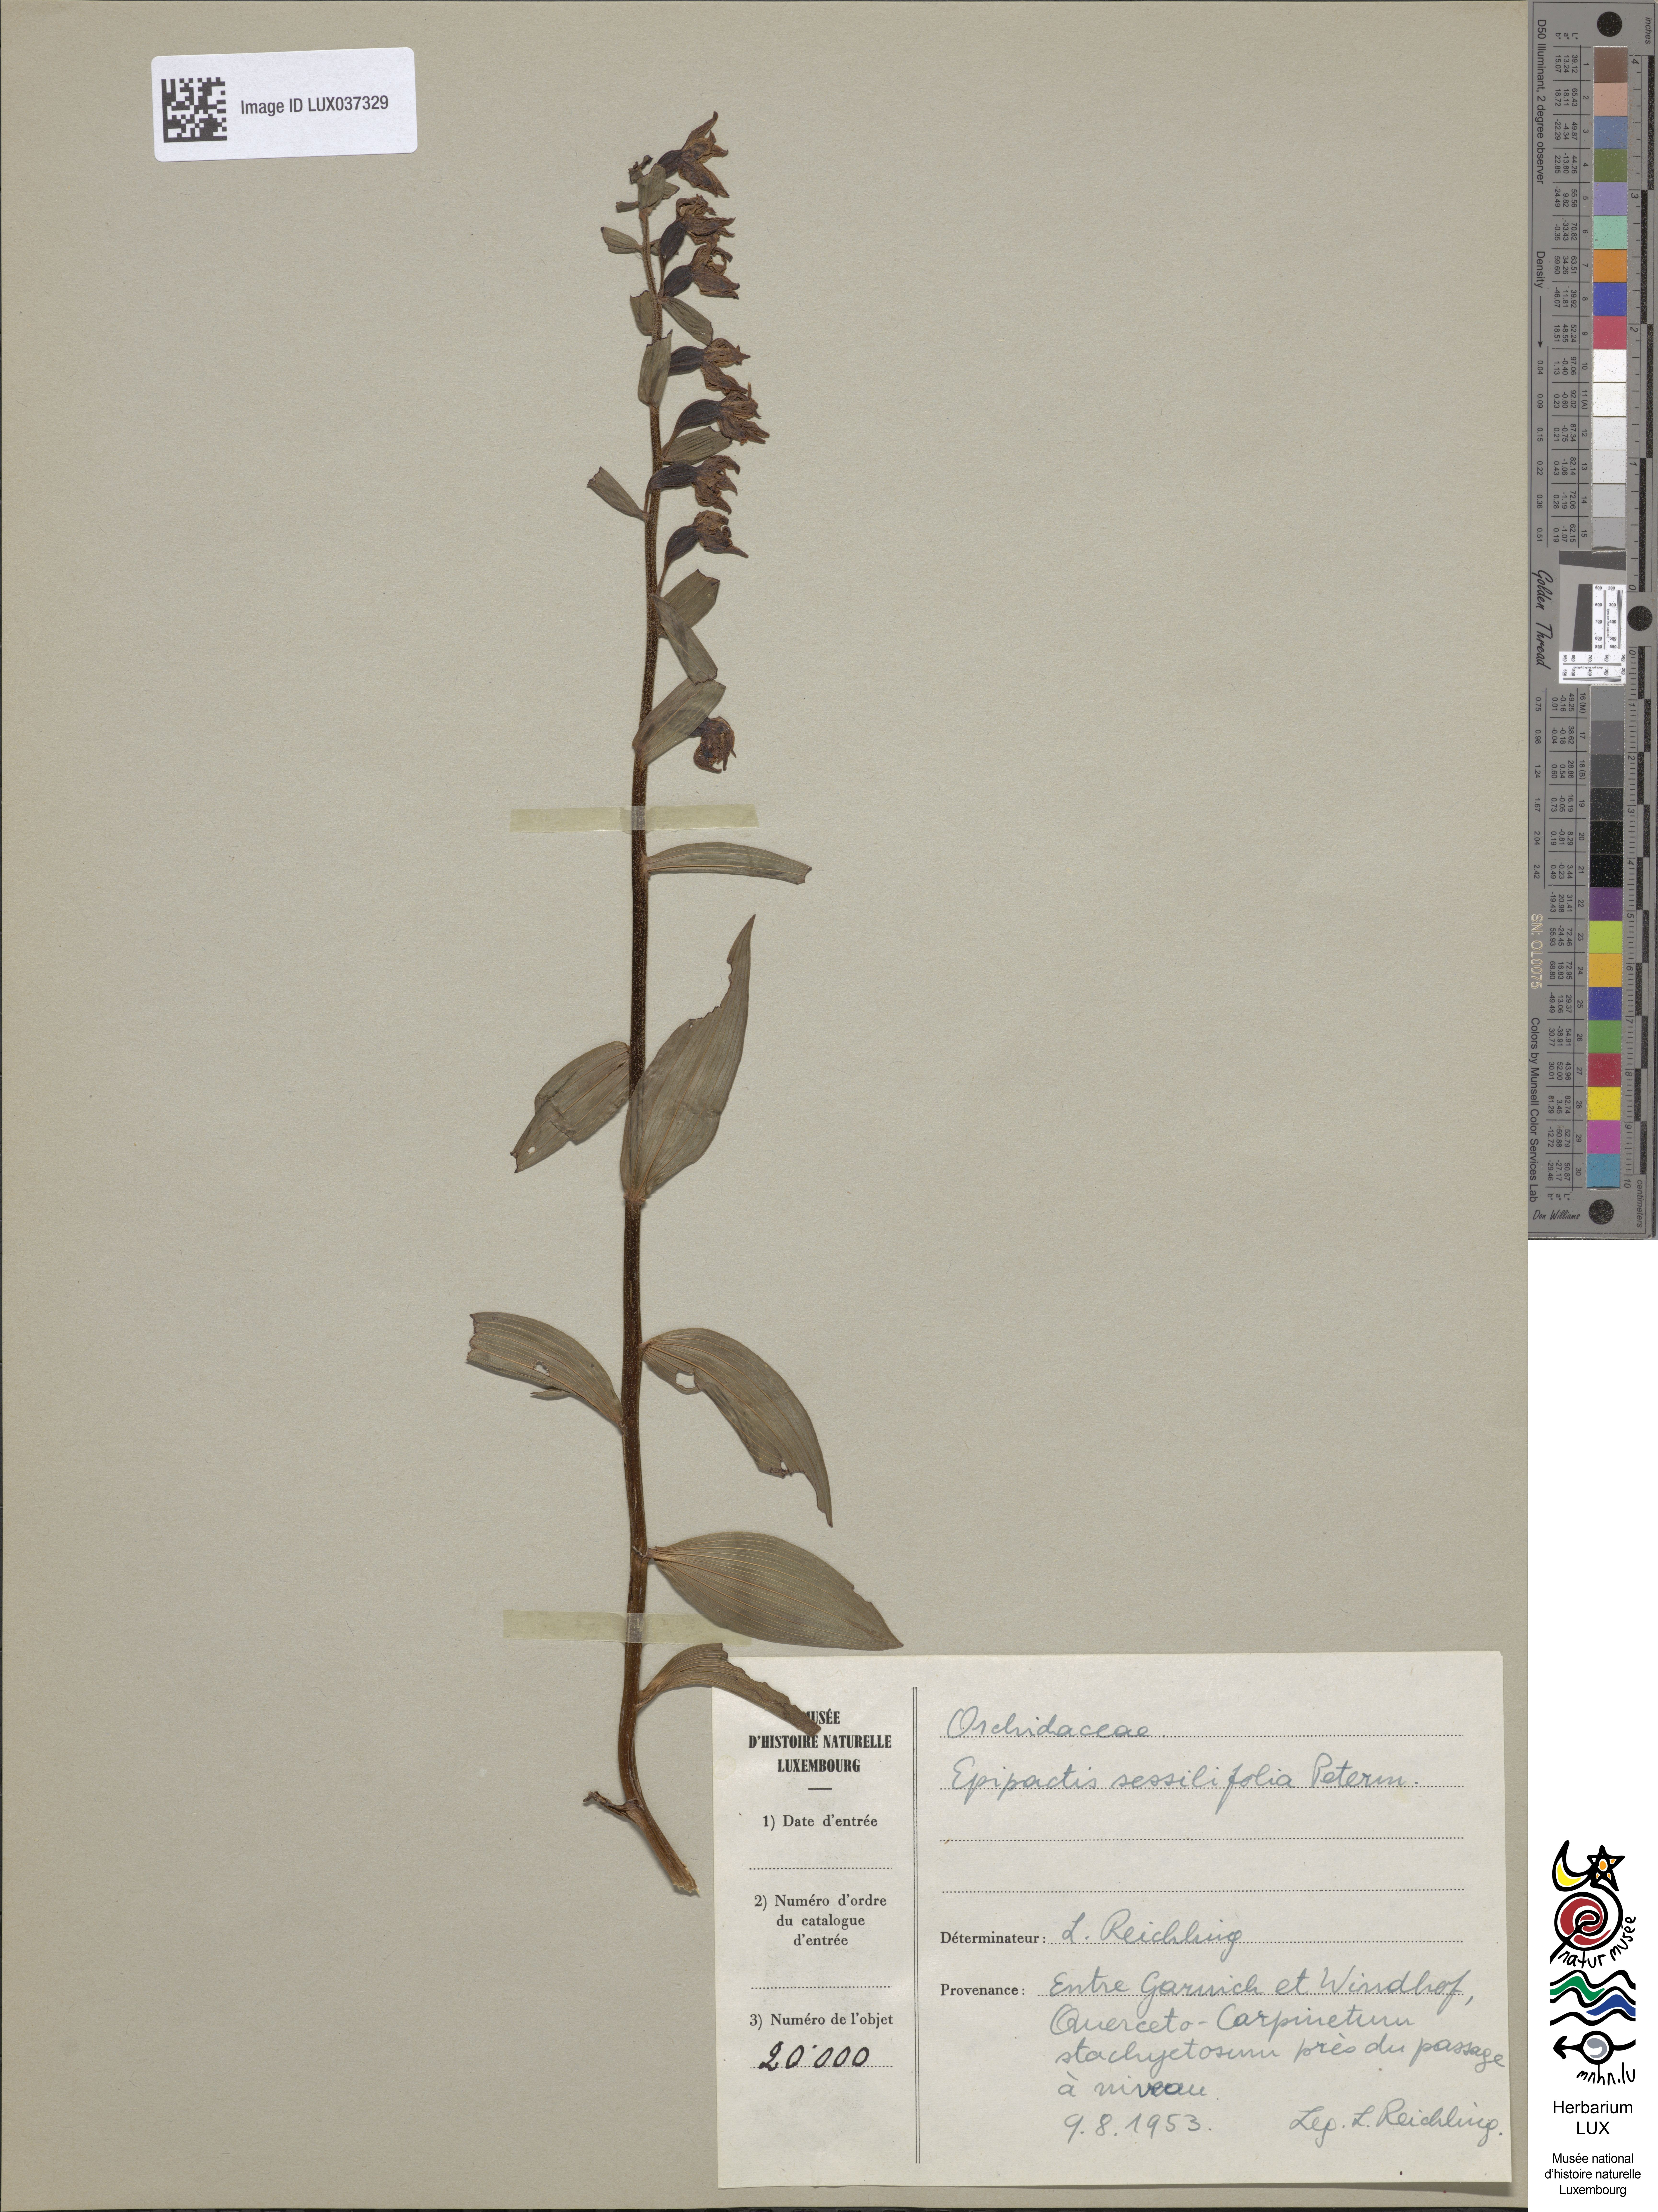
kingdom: Plantae
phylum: Tracheophyta
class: Liliopsida
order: Asparagales
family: Orchidaceae
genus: Epipactis
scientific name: Epipactis purpurata
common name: Violet helleborine
